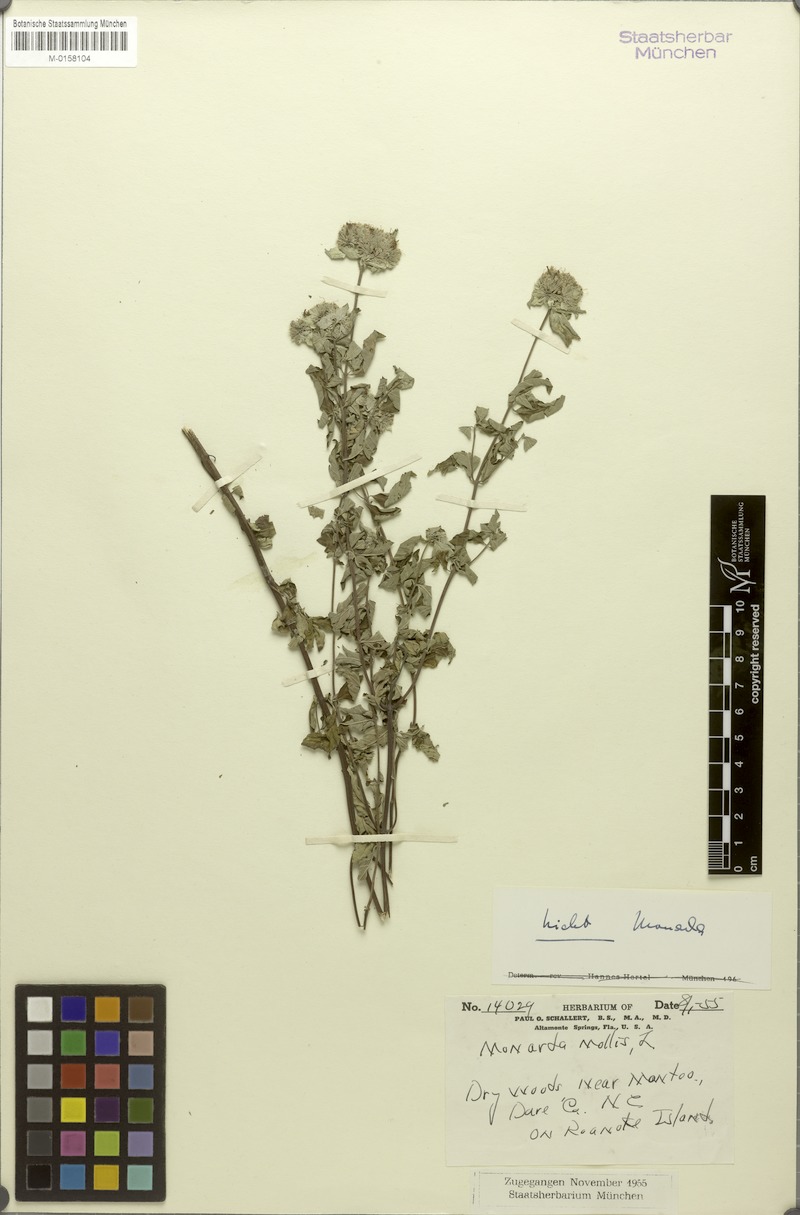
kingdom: Plantae
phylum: Tracheophyta
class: Magnoliopsida
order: Lamiales
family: Lamiaceae
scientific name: Lamiaceae
